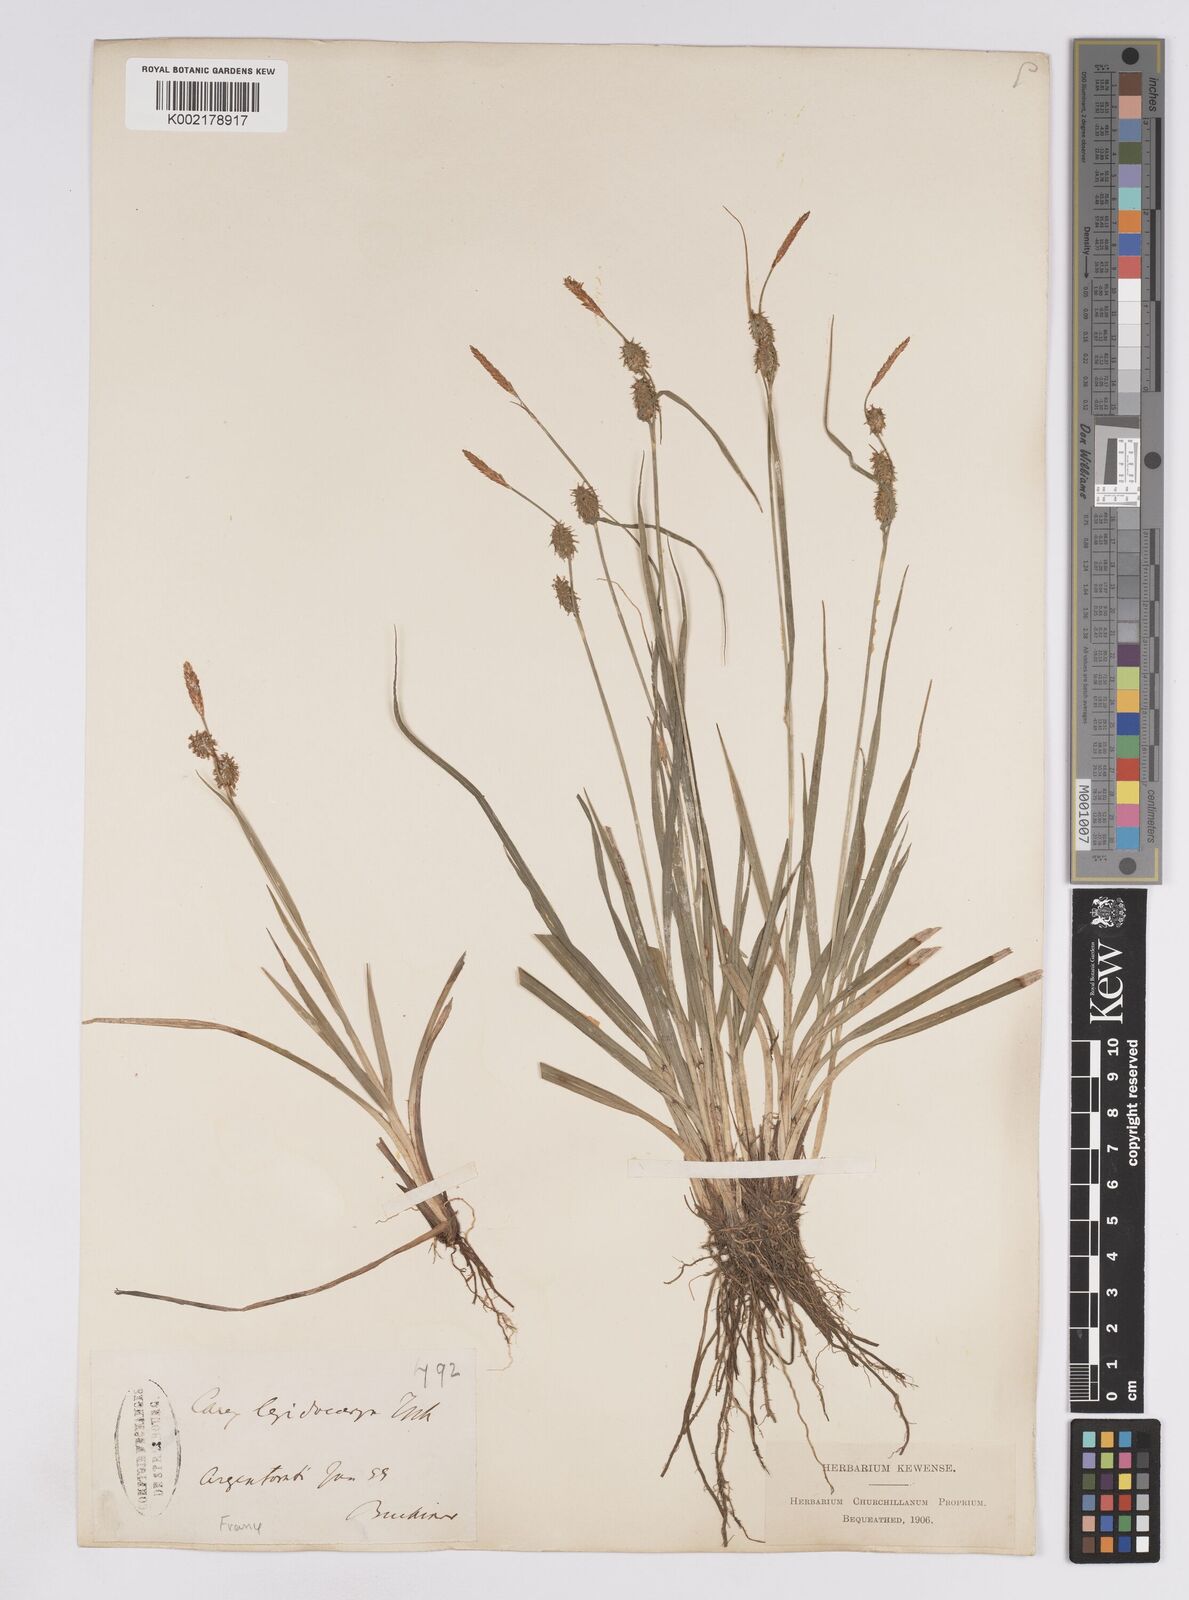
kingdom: Plantae
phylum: Tracheophyta
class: Liliopsida
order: Poales
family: Cyperaceae
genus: Carex
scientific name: Carex lepidocarpa
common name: Long-stalked yellow-sedge
